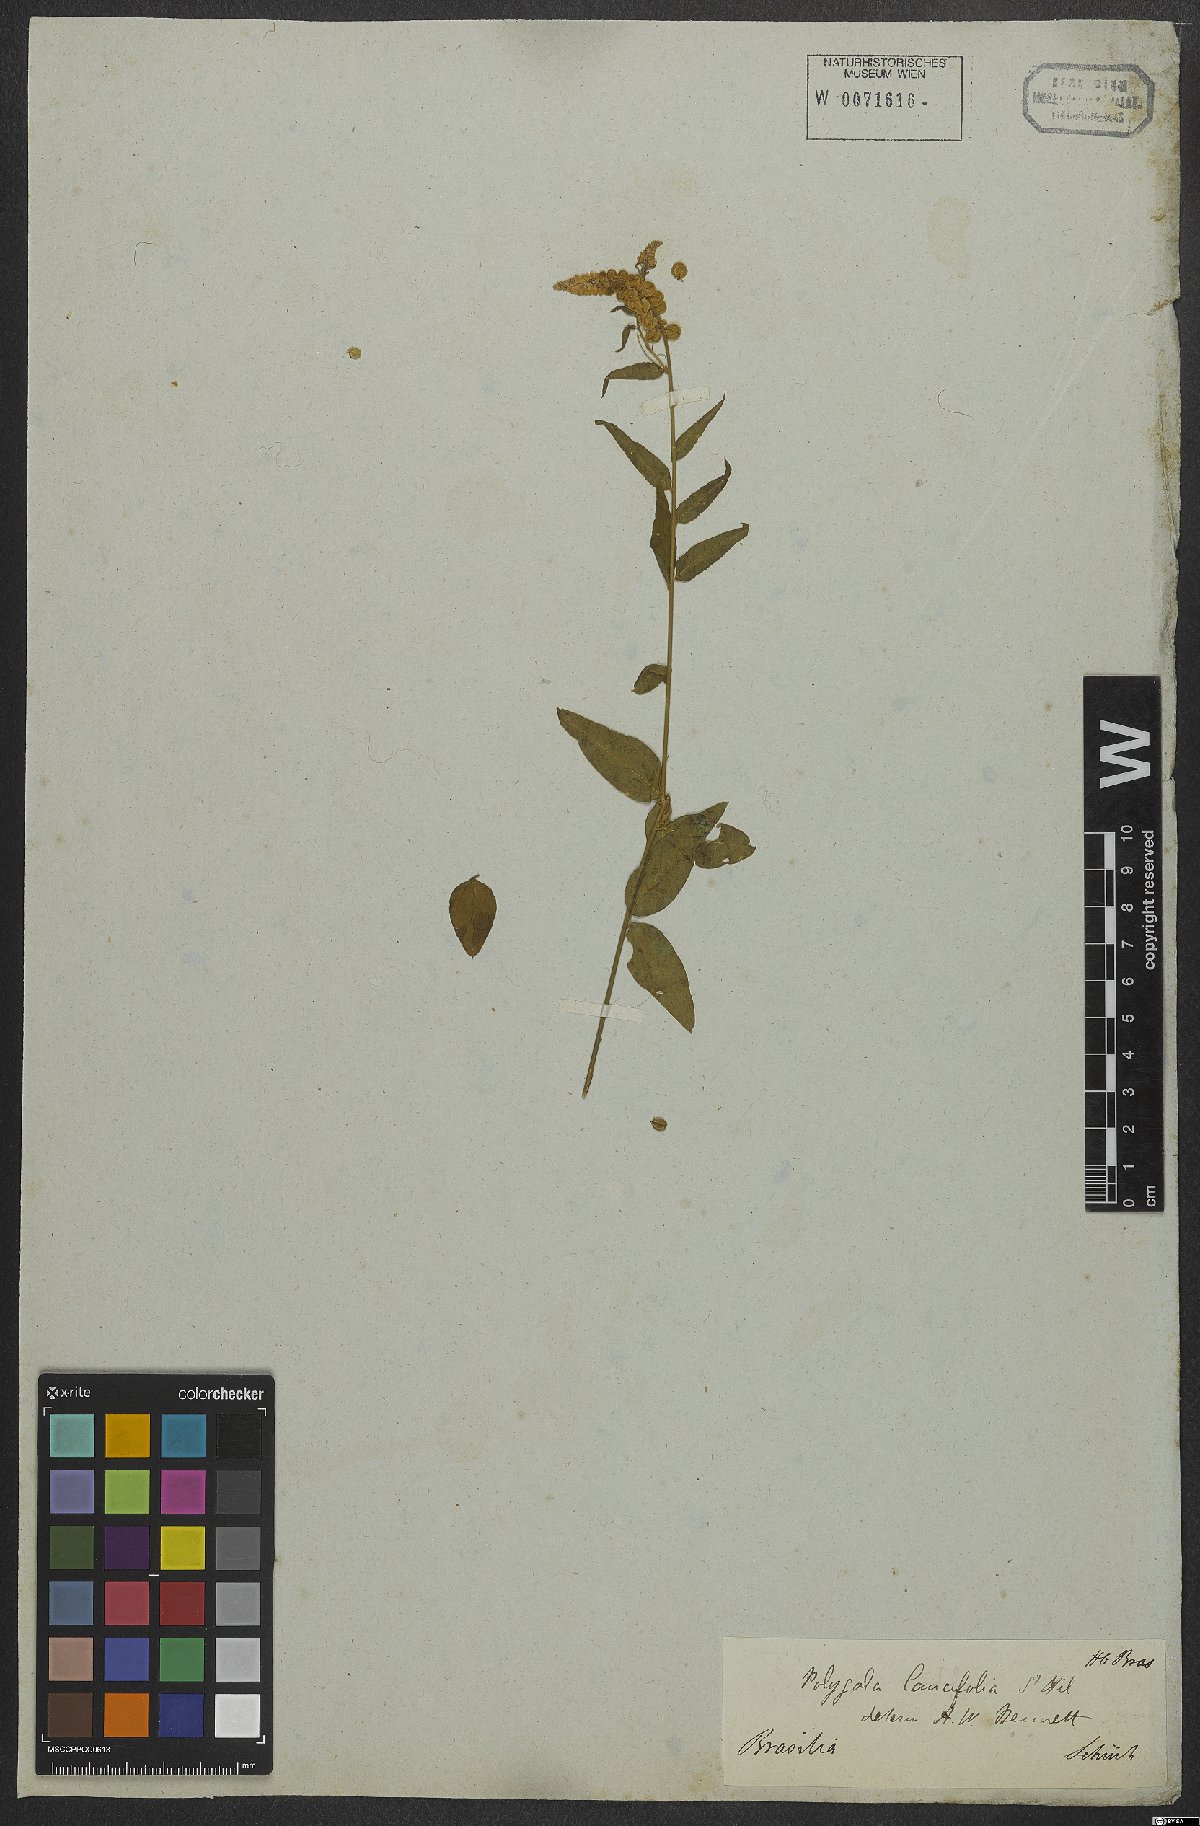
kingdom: Plantae
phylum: Tracheophyta
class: Magnoliopsida
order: Fabales
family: Polygalaceae
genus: Polygala
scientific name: Polygala lancifolia
